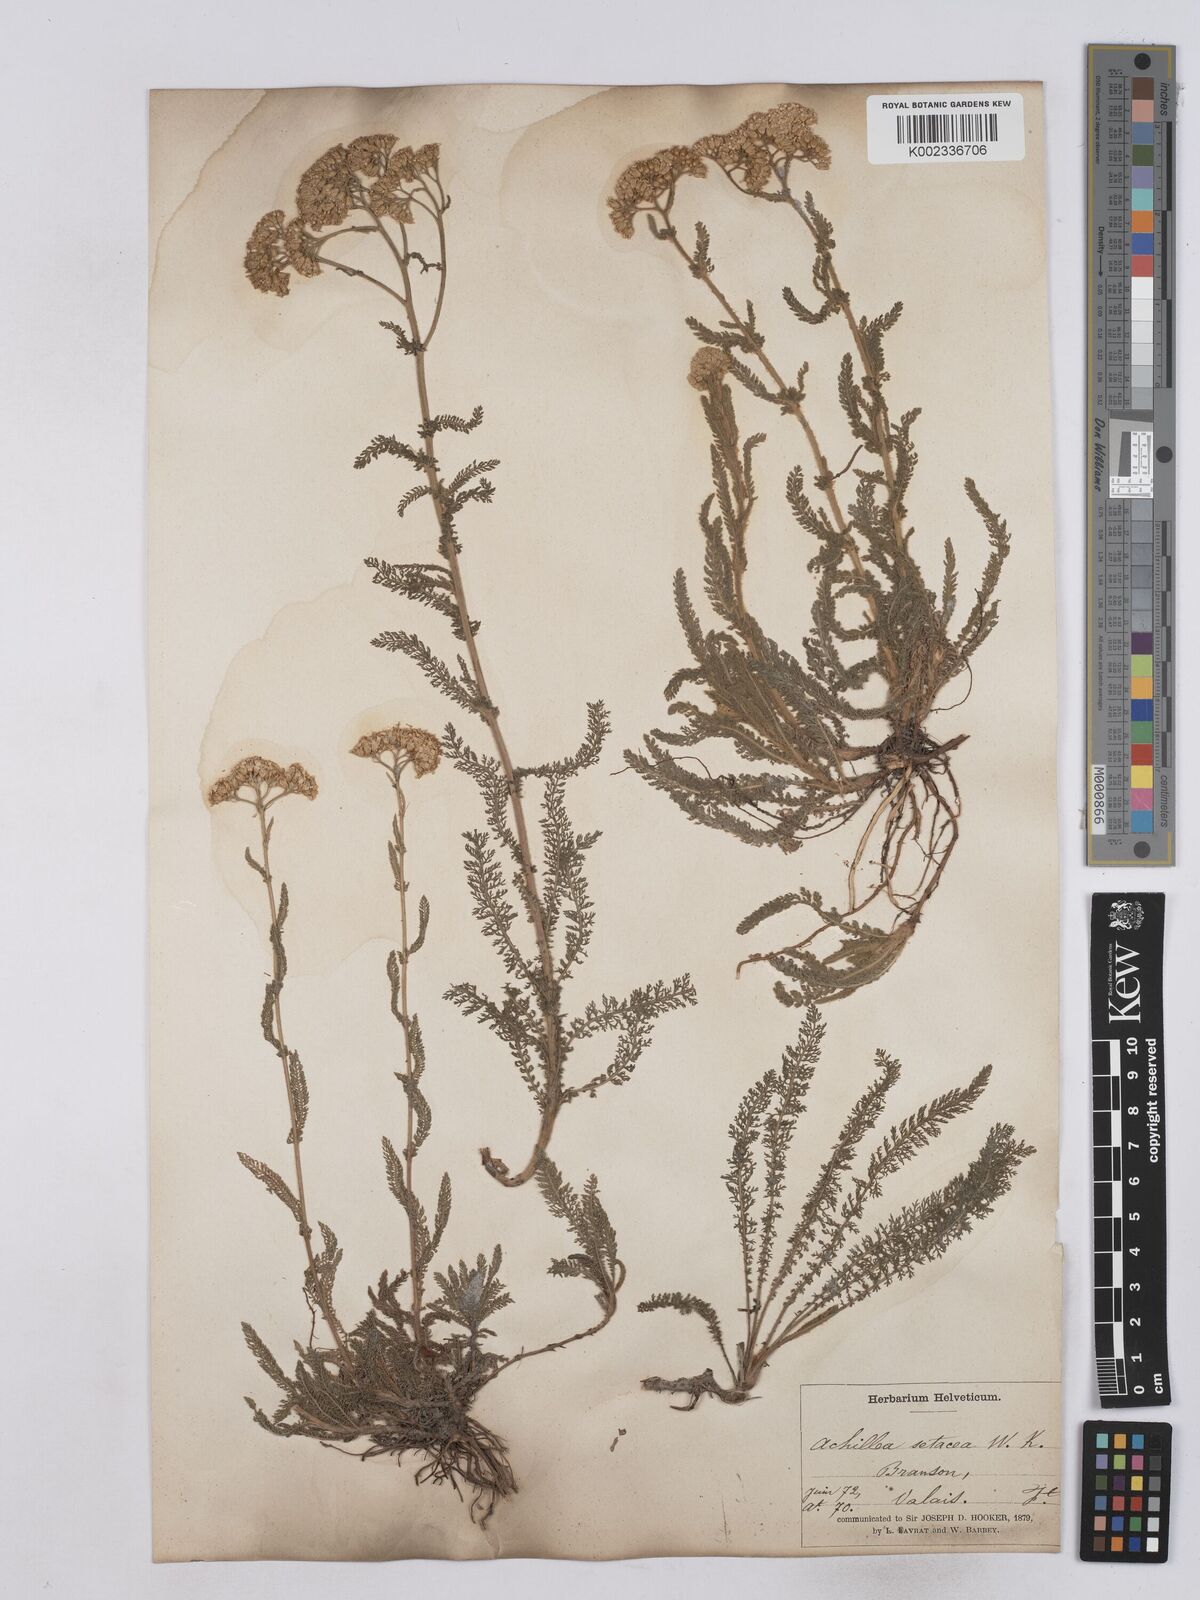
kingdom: Plantae
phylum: Tracheophyta
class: Magnoliopsida
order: Asterales
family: Asteraceae
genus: Achillea
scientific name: Achillea setacea
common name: Bristly yarrow
